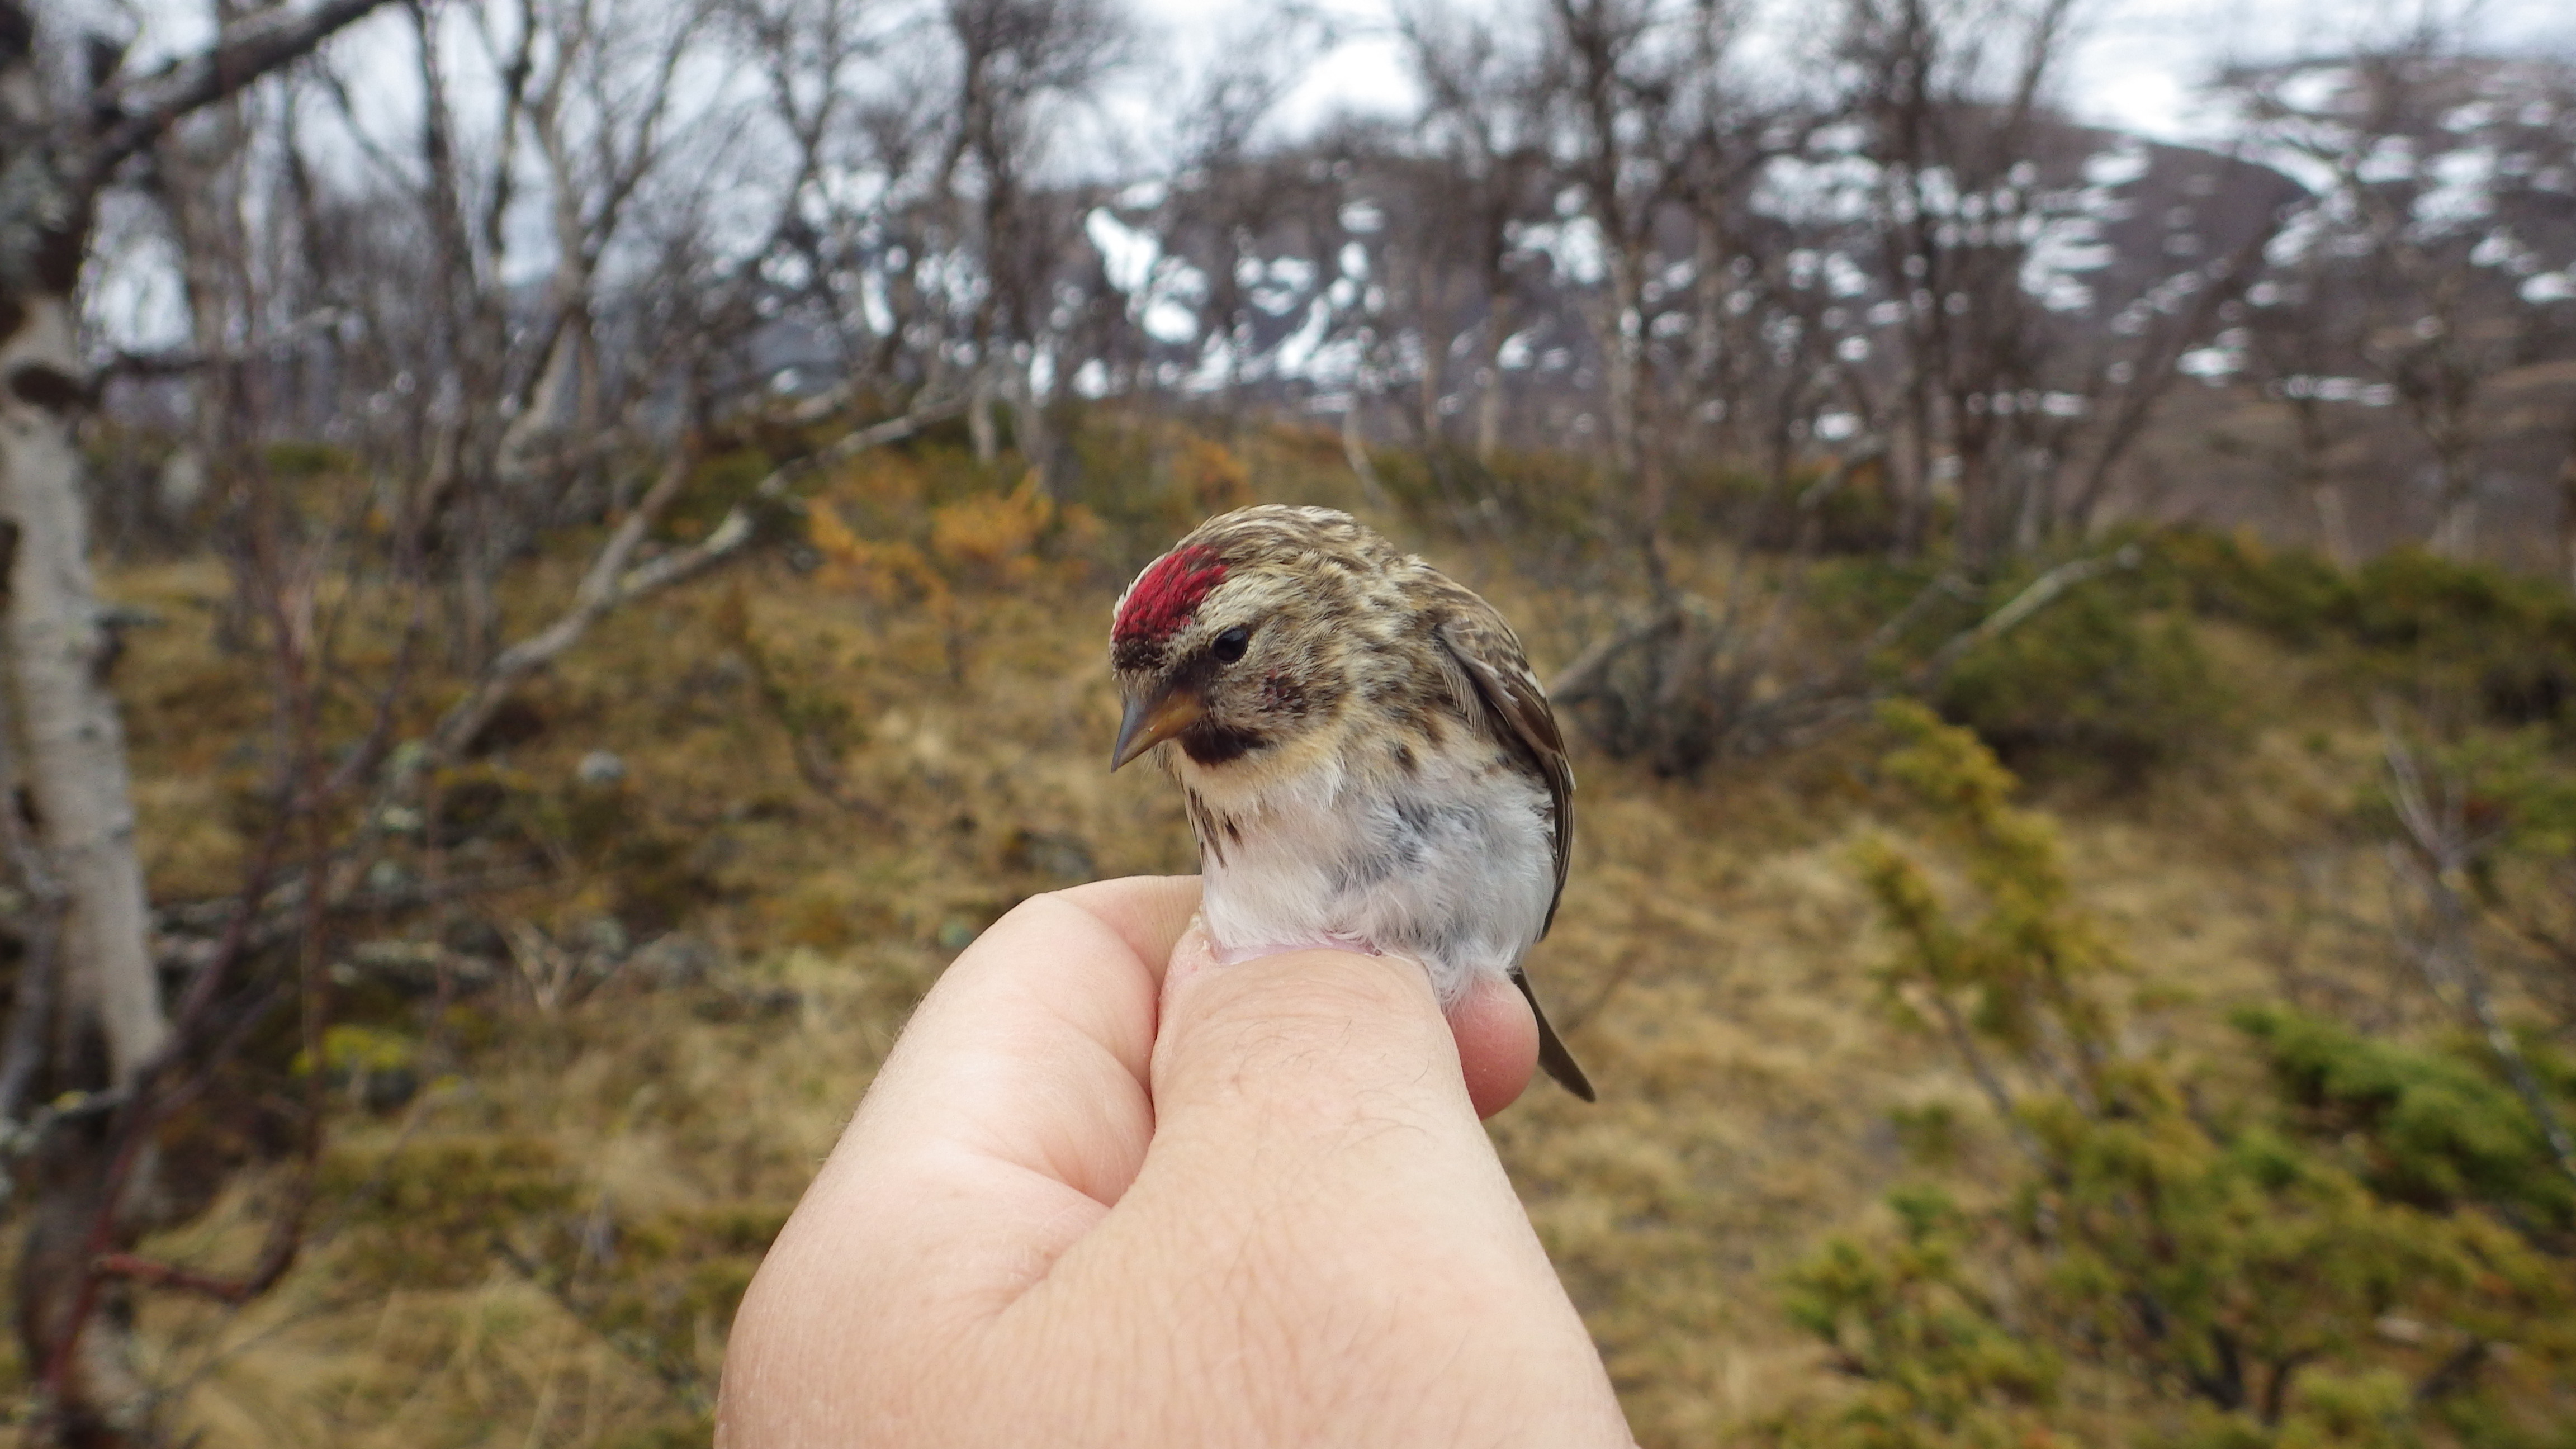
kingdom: Animalia
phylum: Chordata
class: Aves
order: Passeriformes
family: Fringillidae
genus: Acanthis
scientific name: Acanthis flammea
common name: Common redpoll
